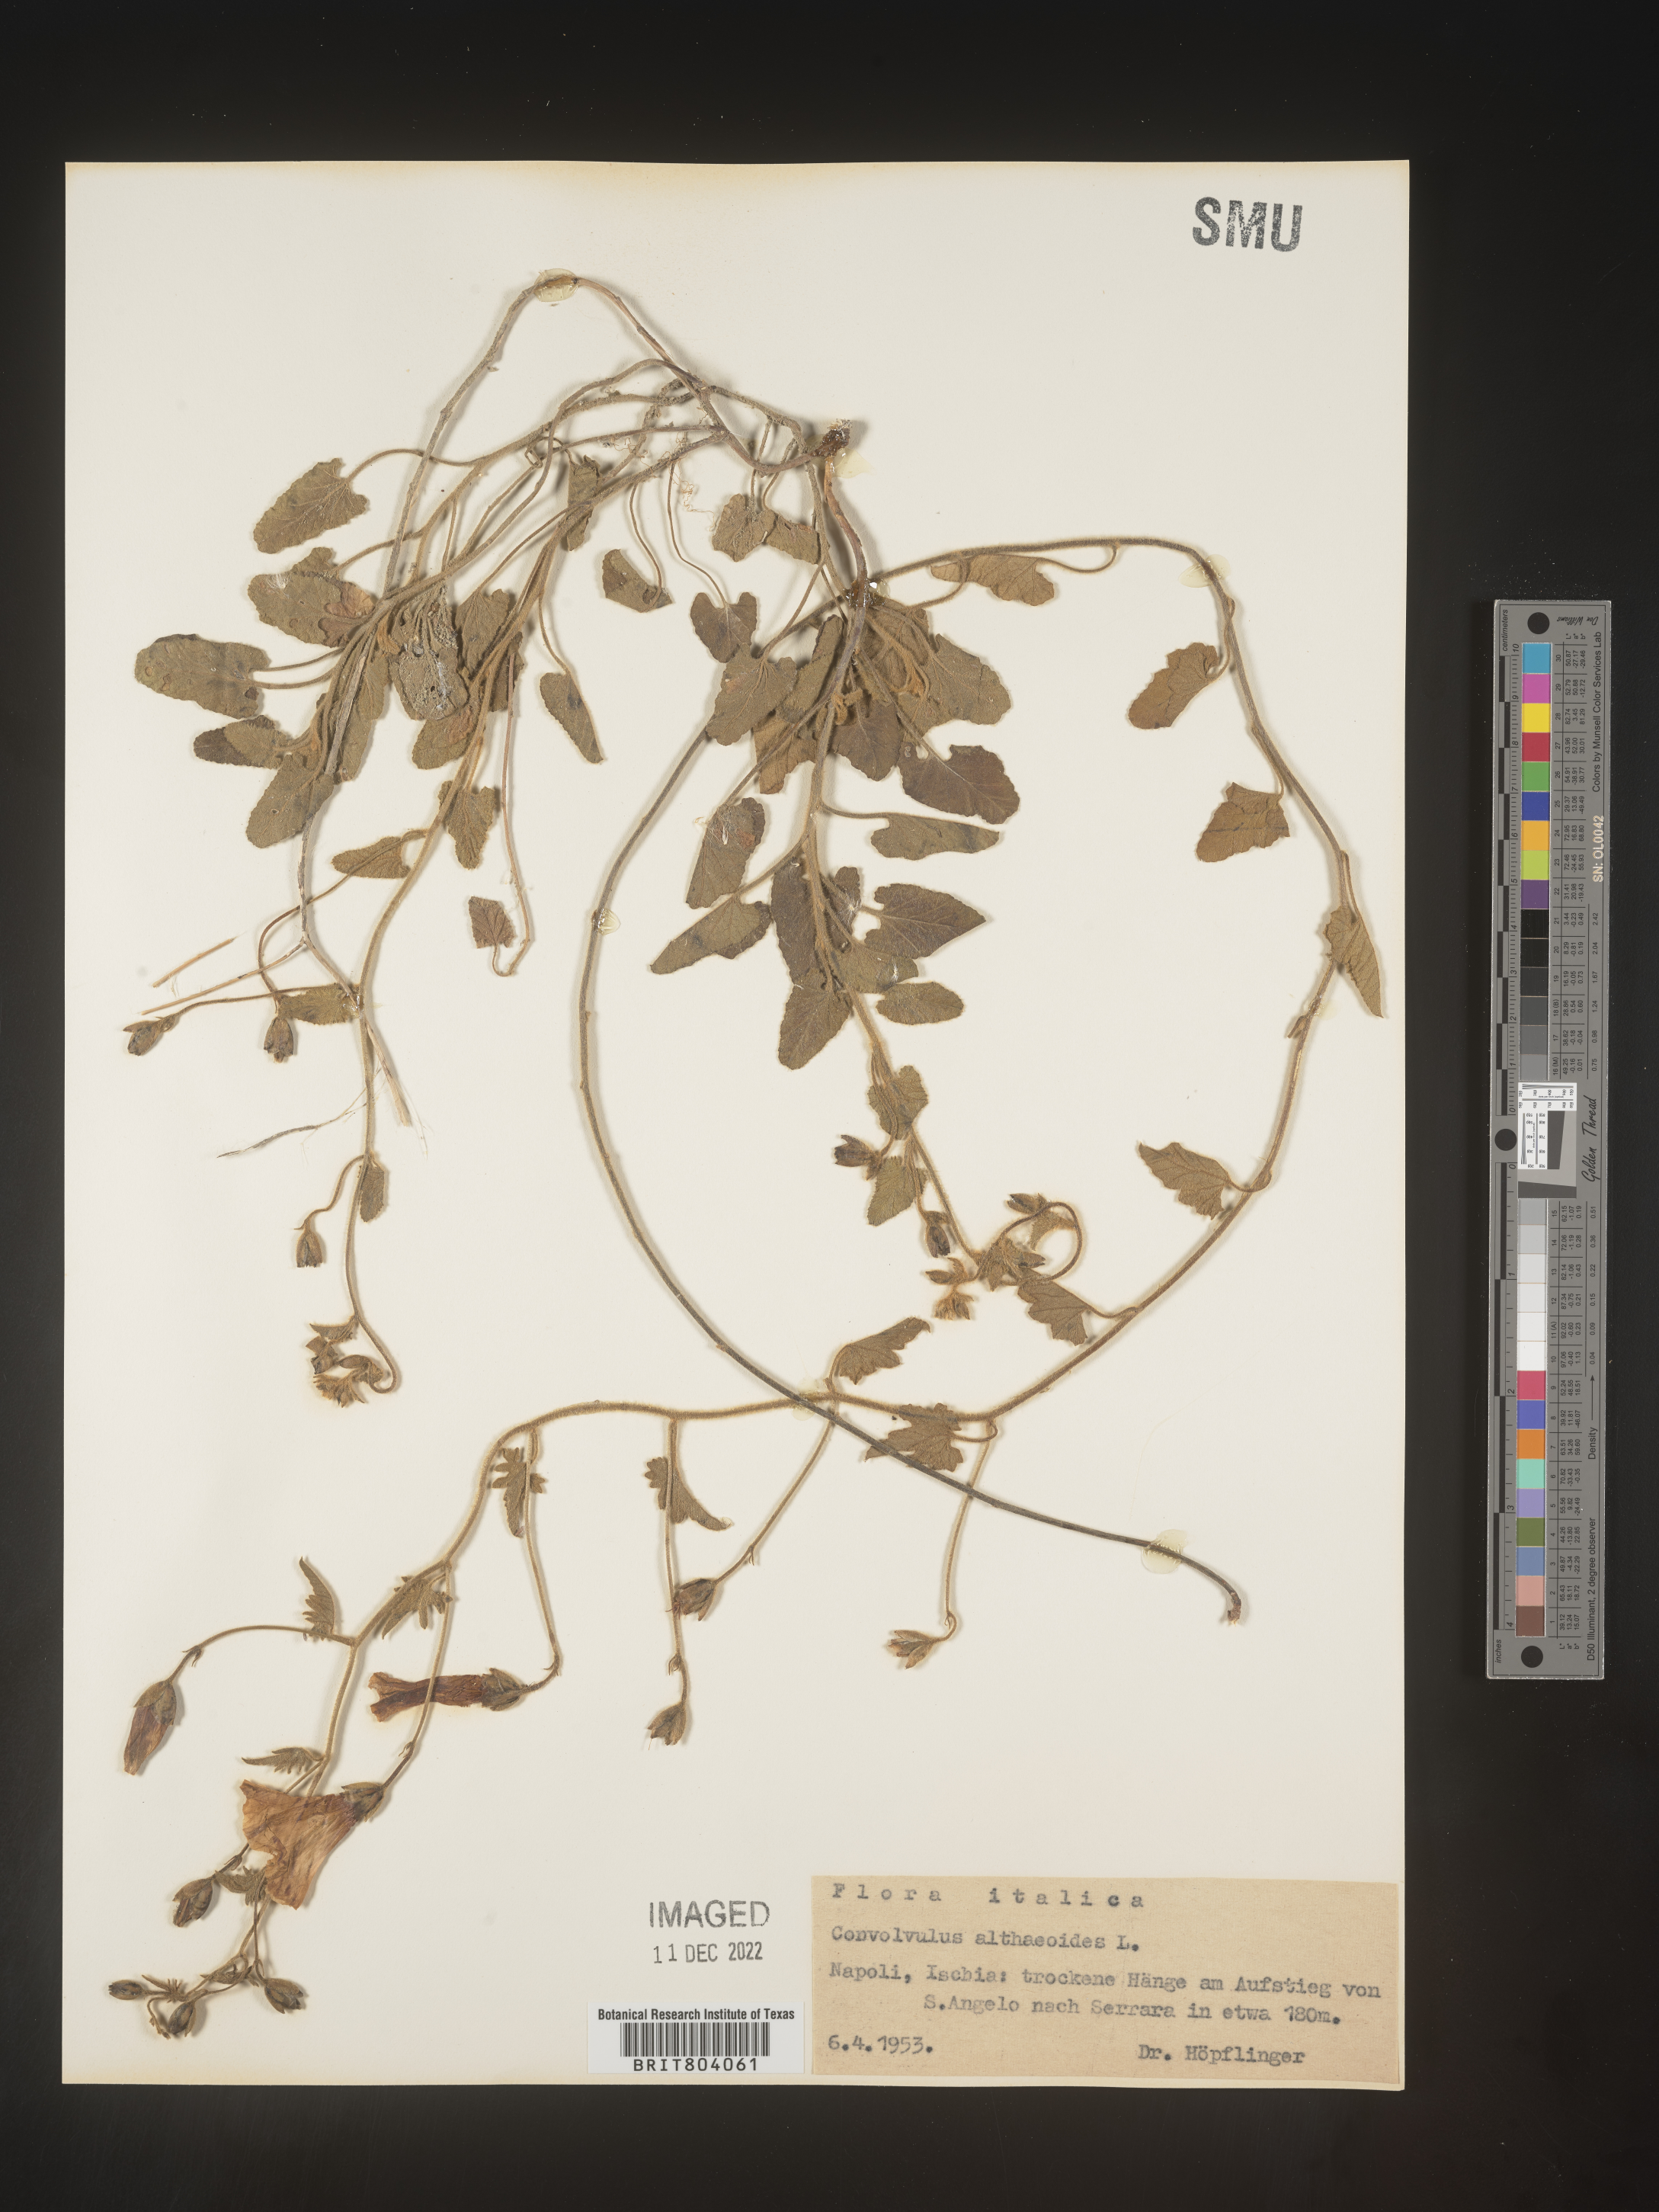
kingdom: Plantae
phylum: Tracheophyta
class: Magnoliopsida
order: Solanales
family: Convolvulaceae
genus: Convolvulus
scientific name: Convolvulus
